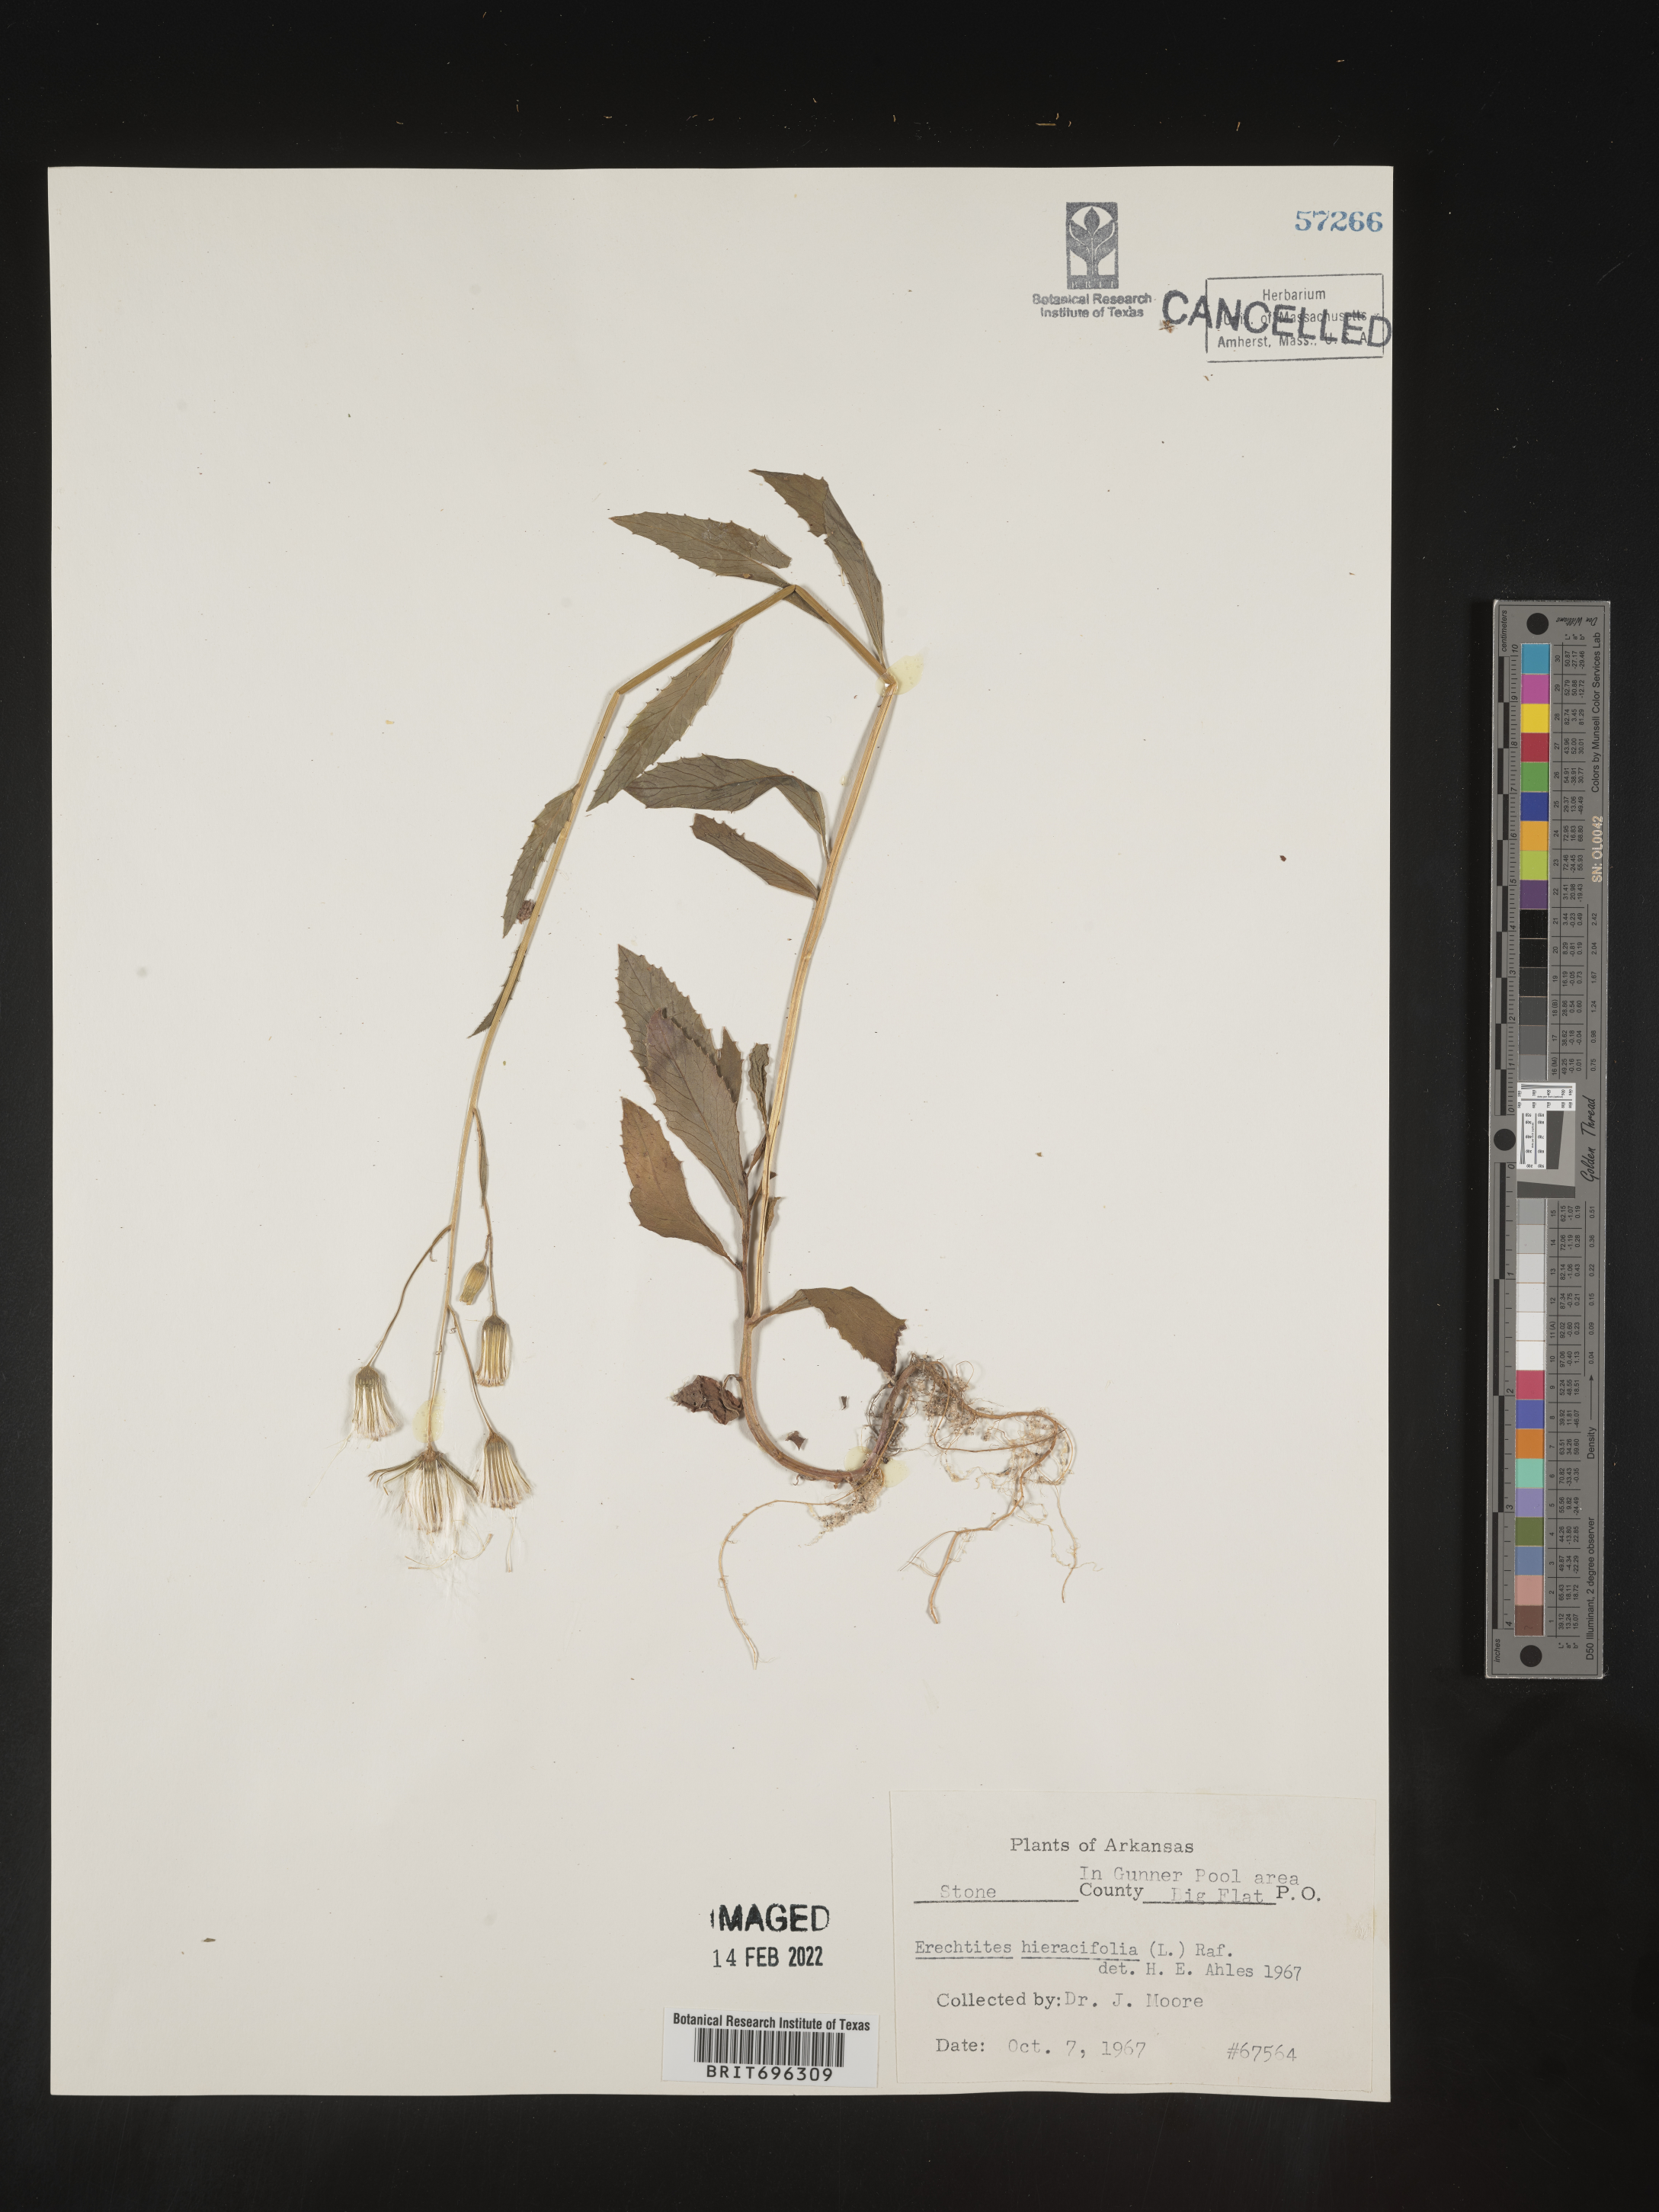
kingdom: Plantae
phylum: Tracheophyta
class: Magnoliopsida
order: Asterales
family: Asteraceae
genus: Erechtites
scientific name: Erechtites hieraciifolius
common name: American burnweed
